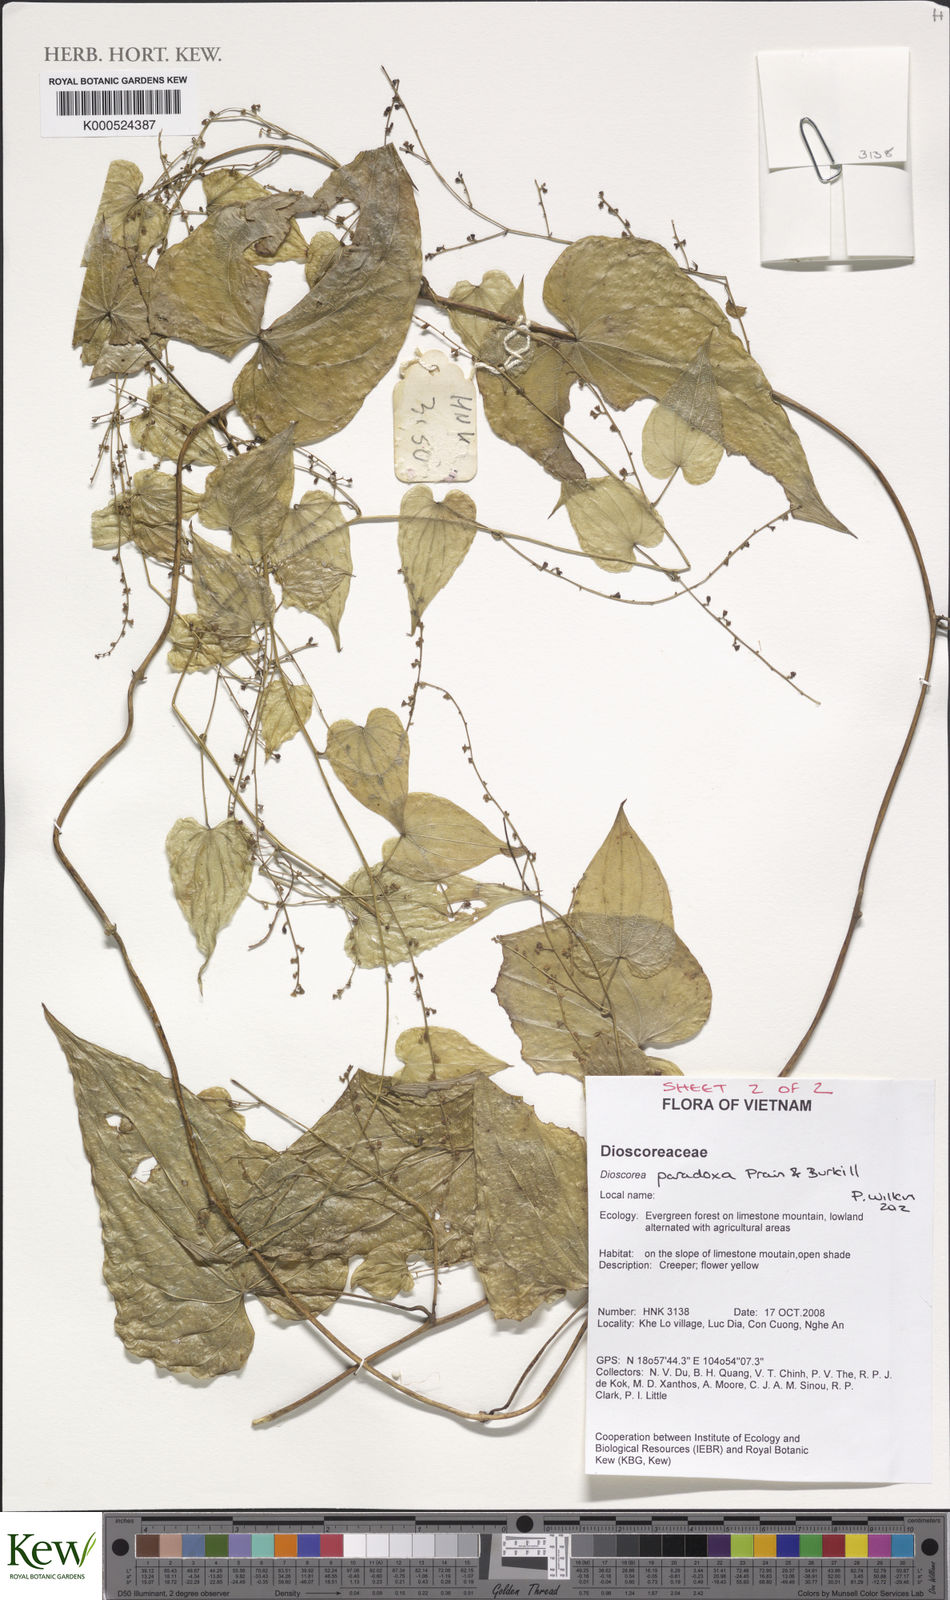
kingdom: Plantae
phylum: Tracheophyta
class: Liliopsida
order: Dioscoreales
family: Dioscoreaceae
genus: Dioscorea
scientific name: Dioscorea paradoxa
